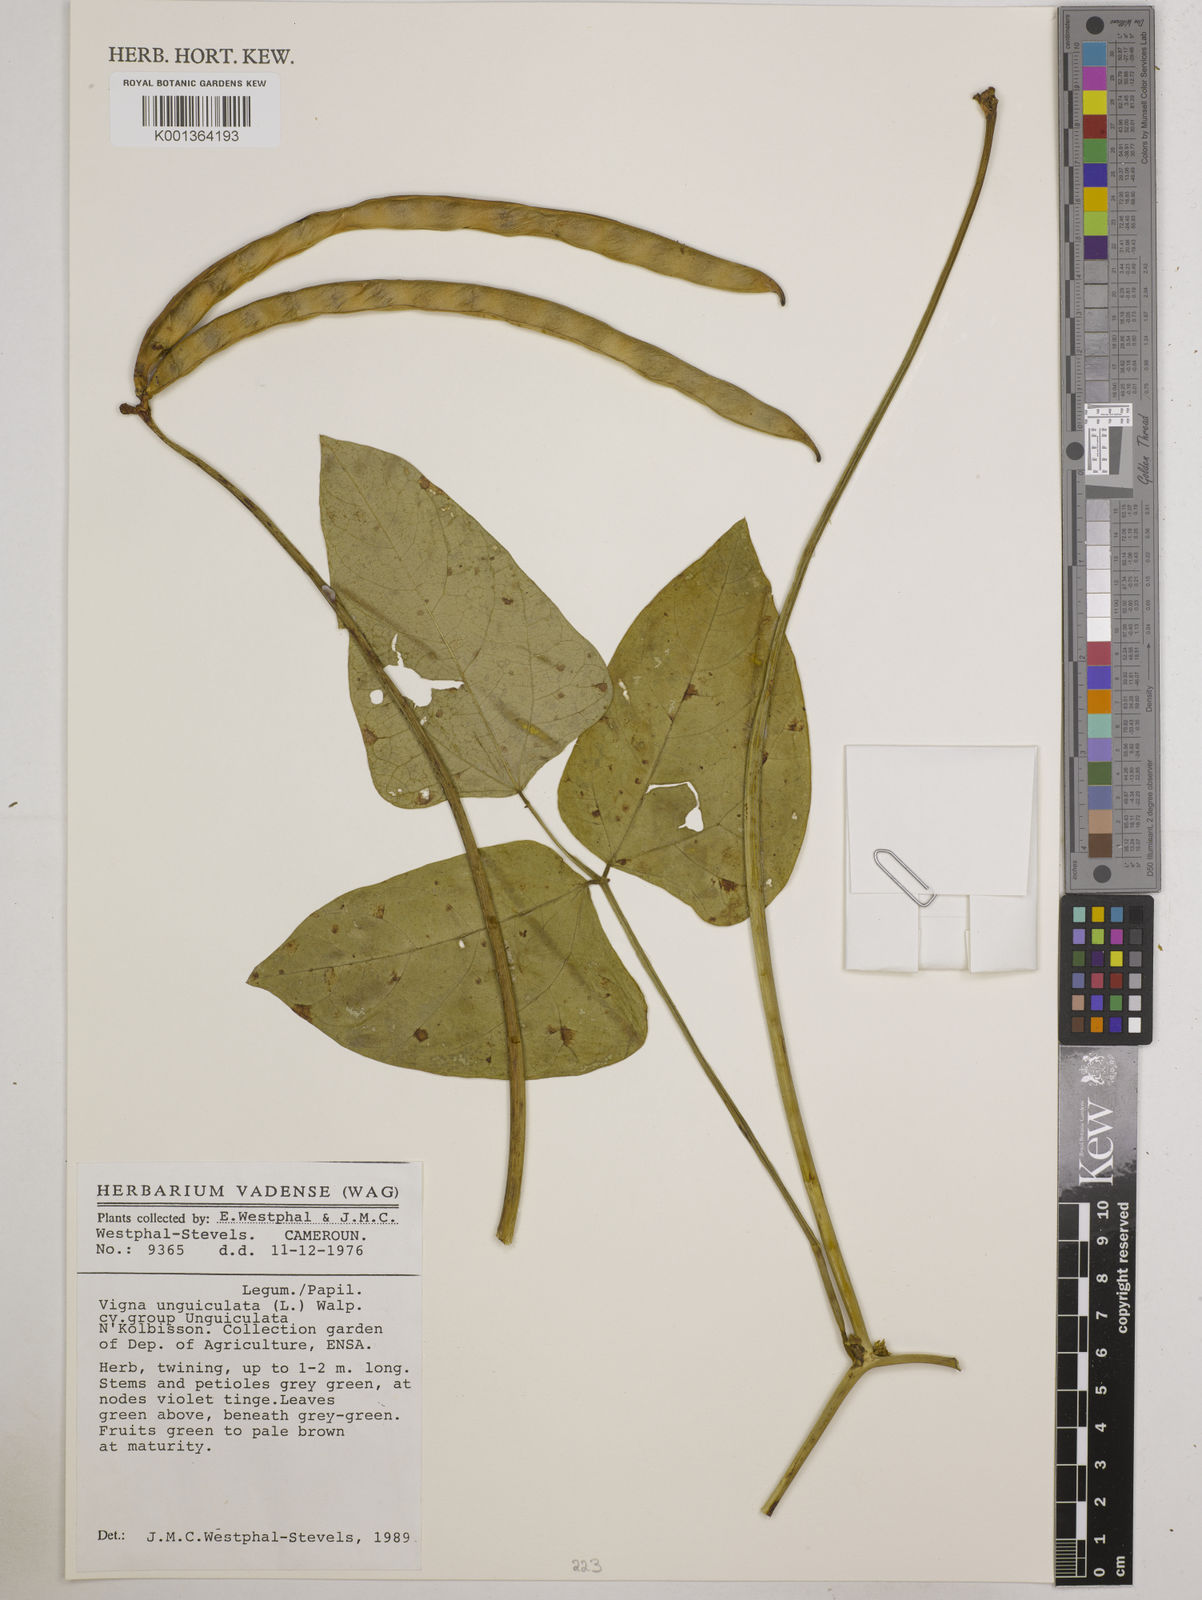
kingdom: Plantae
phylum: Tracheophyta
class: Magnoliopsida
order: Fabales
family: Fabaceae
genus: Vigna
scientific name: Vigna unguiculata
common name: Cowpea
